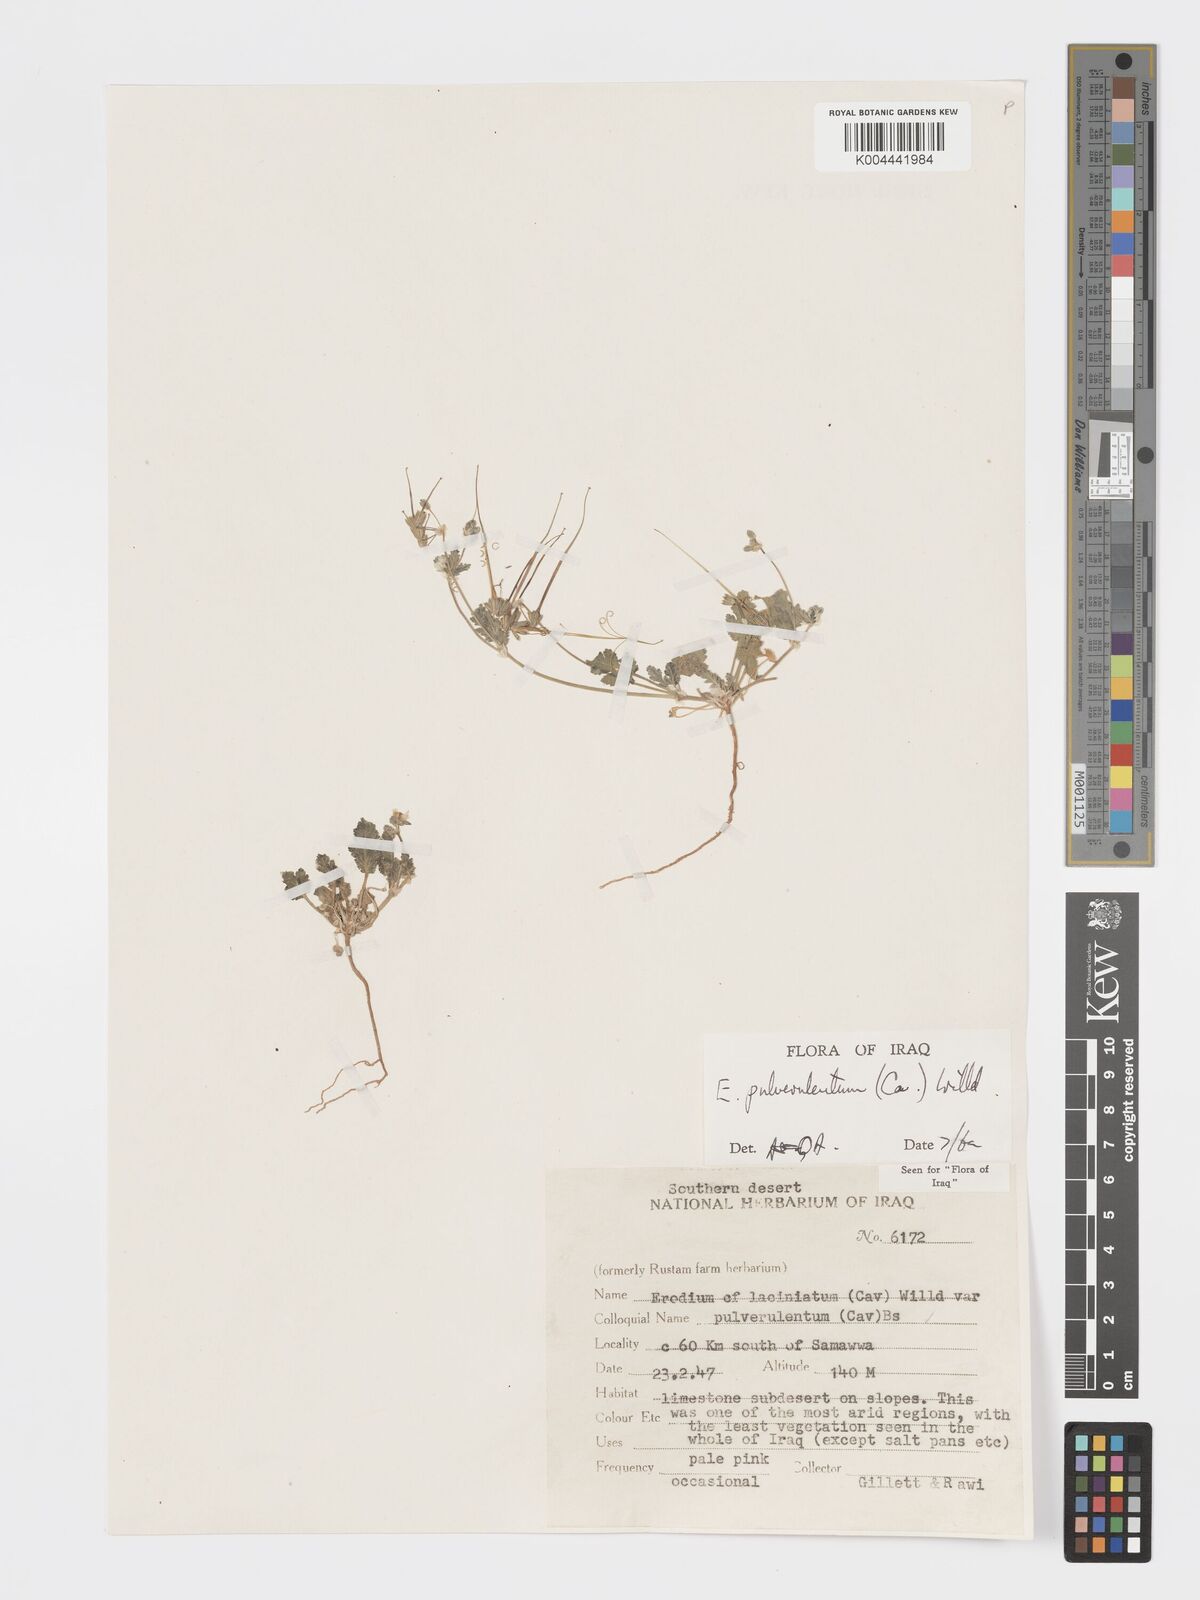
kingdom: Plantae
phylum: Tracheophyta
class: Magnoliopsida
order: Geraniales
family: Geraniaceae
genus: Erodium
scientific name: Erodium laciniatum
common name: Cutleaf stork's bill
